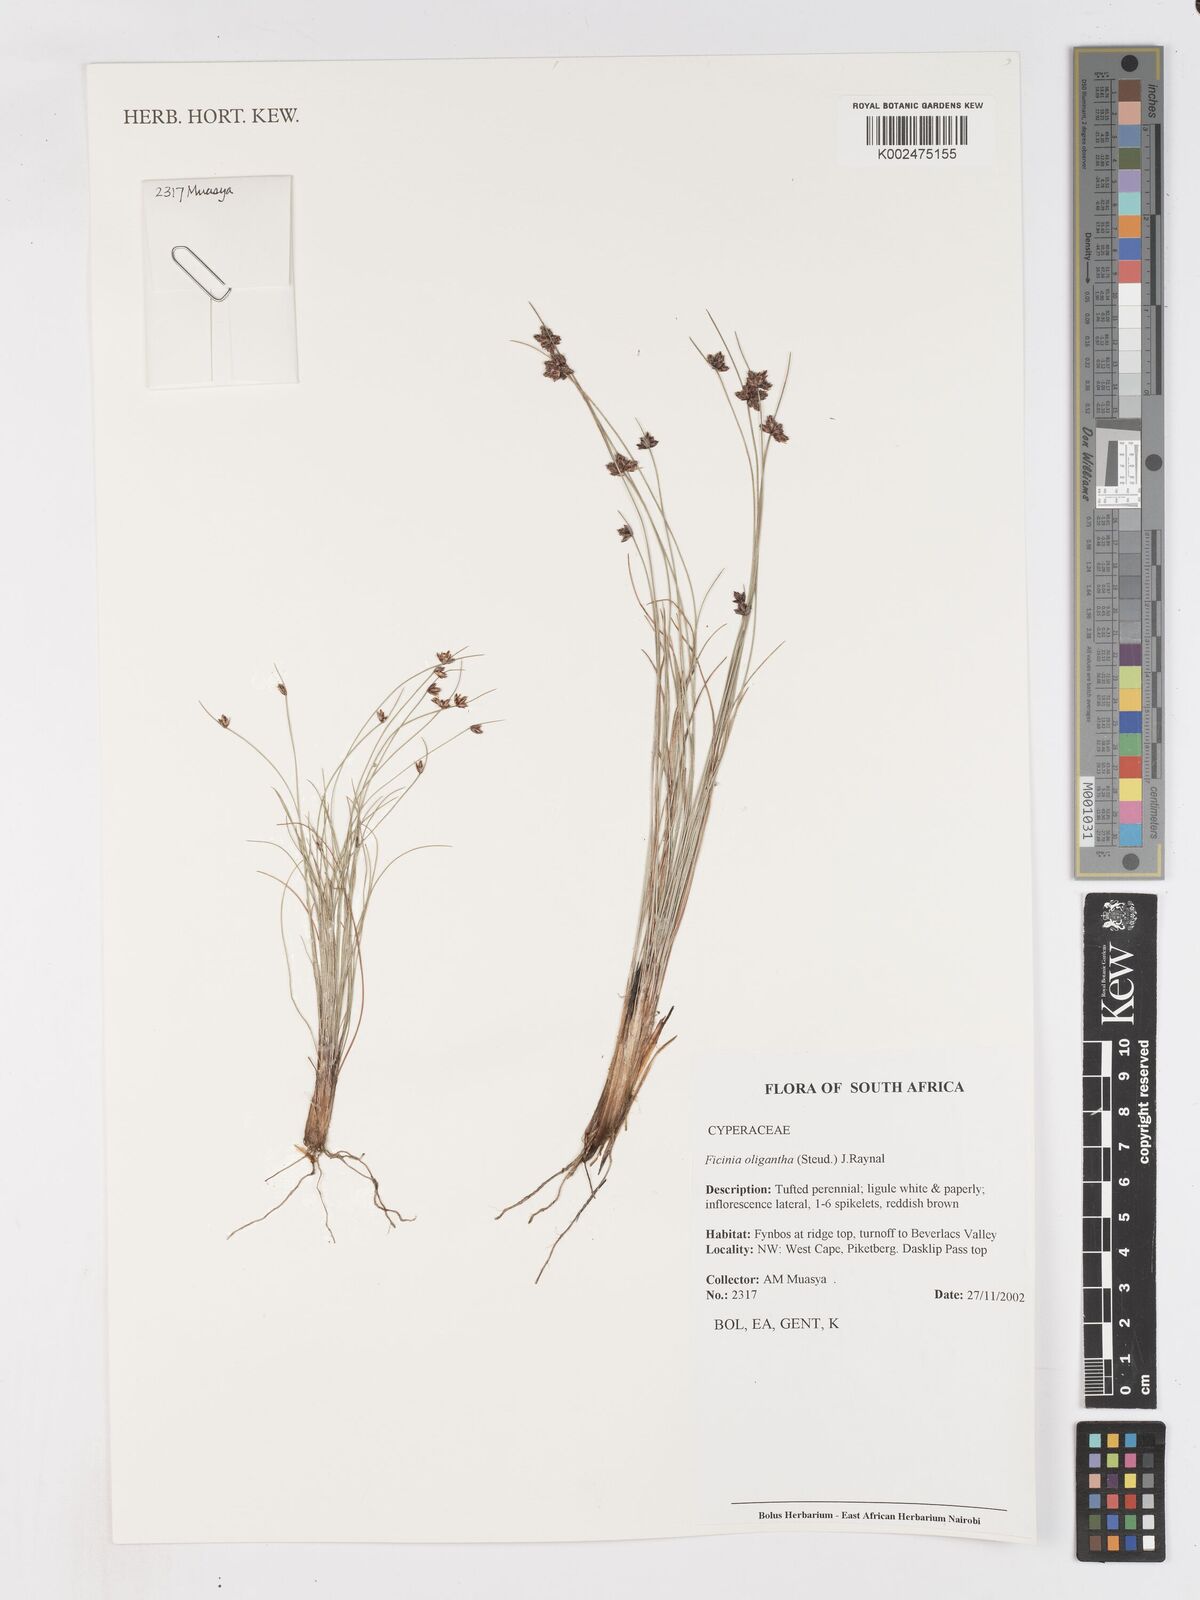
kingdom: Plantae
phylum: Tracheophyta
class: Liliopsida
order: Poales
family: Cyperaceae
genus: Ficinia
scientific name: Ficinia stolonifera
